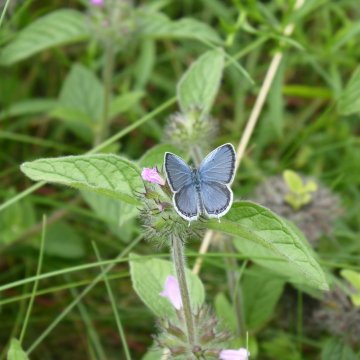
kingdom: Animalia
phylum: Arthropoda
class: Insecta
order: Lepidoptera
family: Lycaenidae
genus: Elkalyce
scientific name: Elkalyce comyntas
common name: Eastern Tailed-Blue
